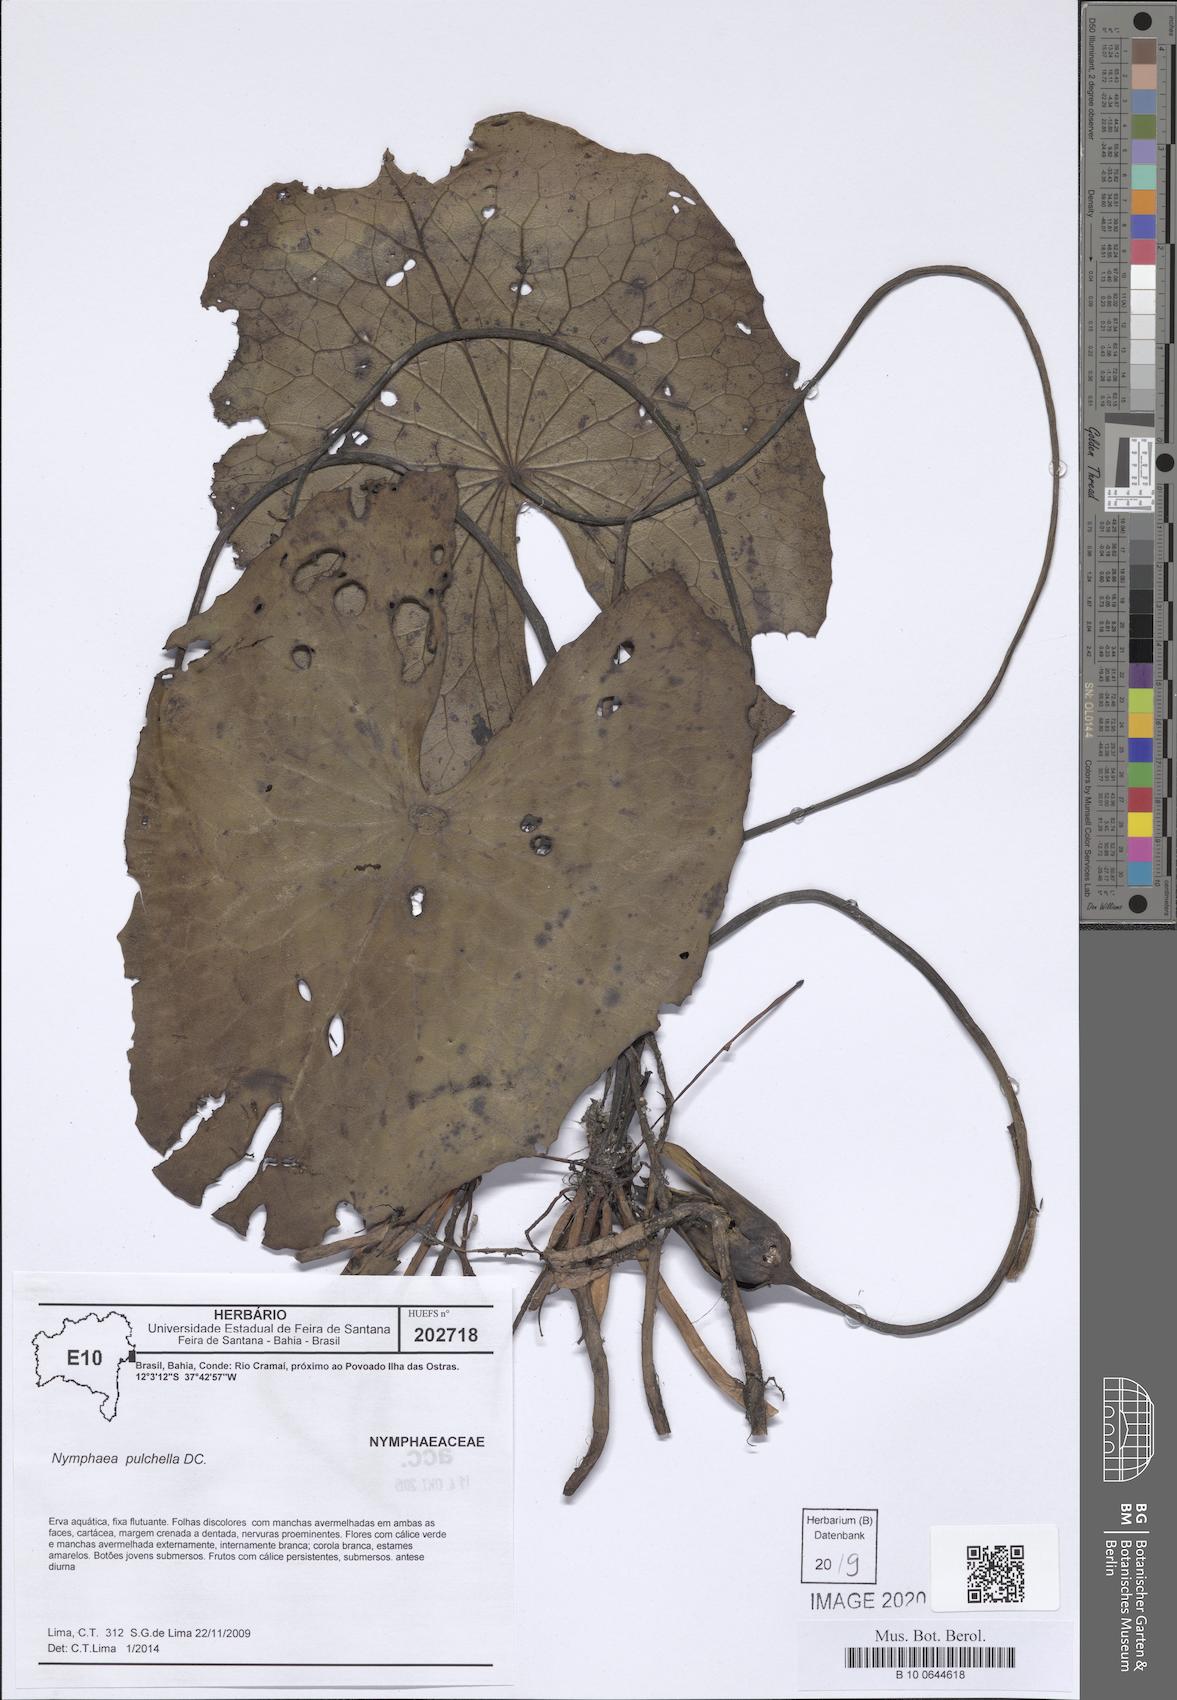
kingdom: Plantae
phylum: Tracheophyta
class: Magnoliopsida
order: Nymphaeales
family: Nymphaeaceae
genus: Nymphaea
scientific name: Nymphaea pulchella
